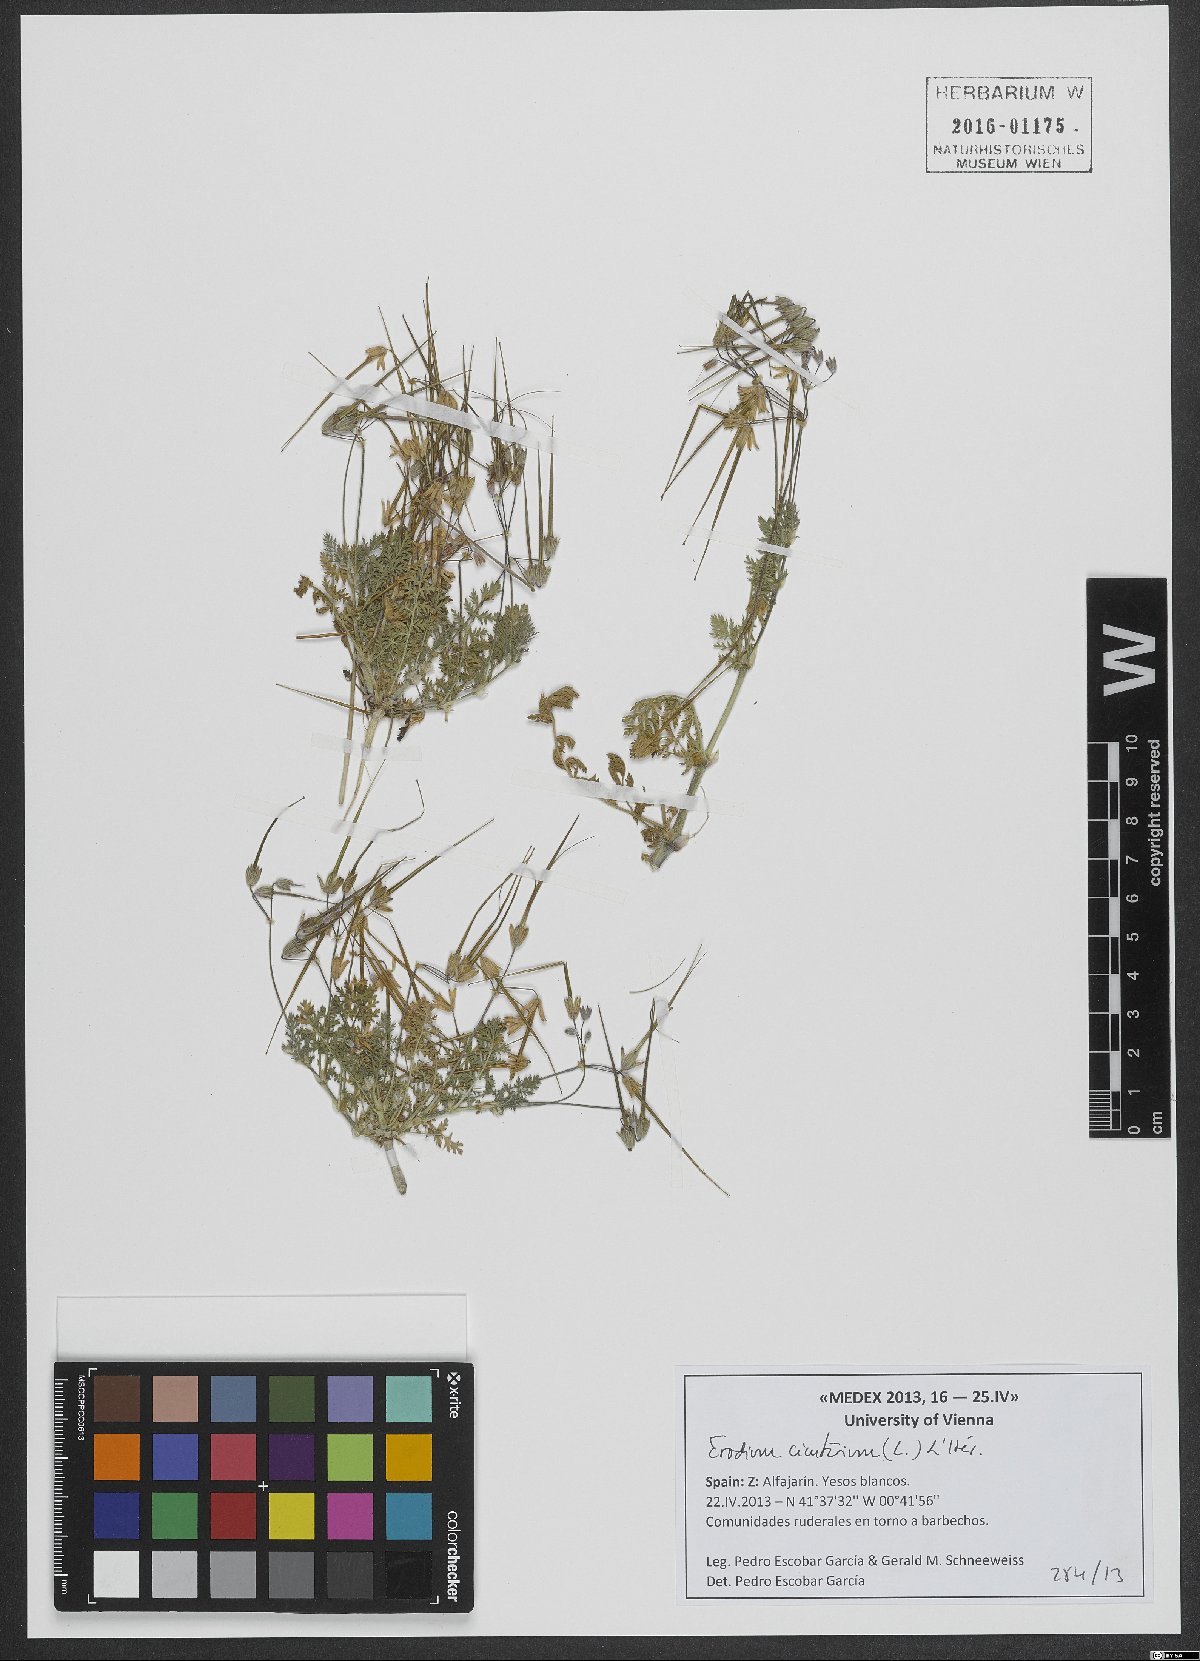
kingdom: Plantae
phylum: Tracheophyta
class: Magnoliopsida
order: Geraniales
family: Geraniaceae
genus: Erodium
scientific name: Erodium cicutarium
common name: Common stork's-bill
